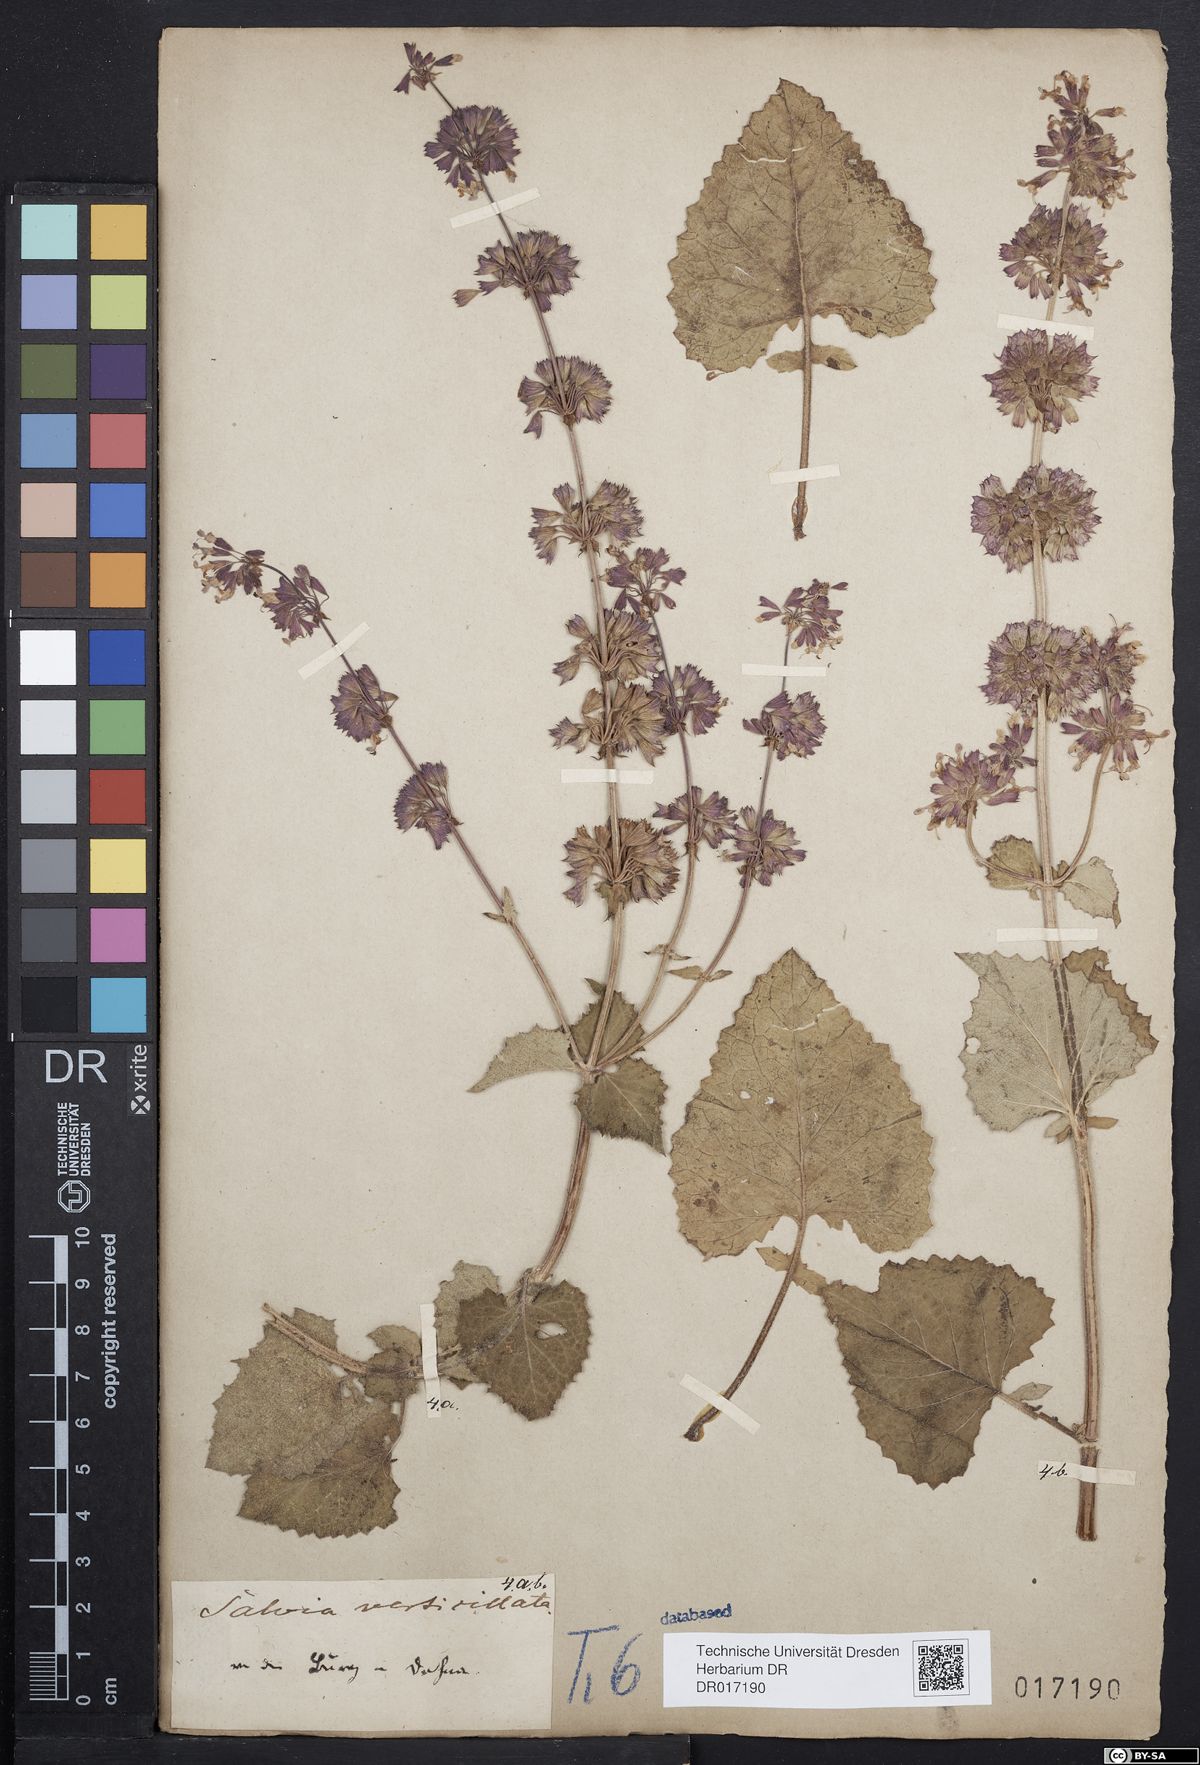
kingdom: Plantae
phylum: Tracheophyta
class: Magnoliopsida
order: Lamiales
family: Lamiaceae
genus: Salvia
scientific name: Salvia verticillata
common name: Whorled clary
